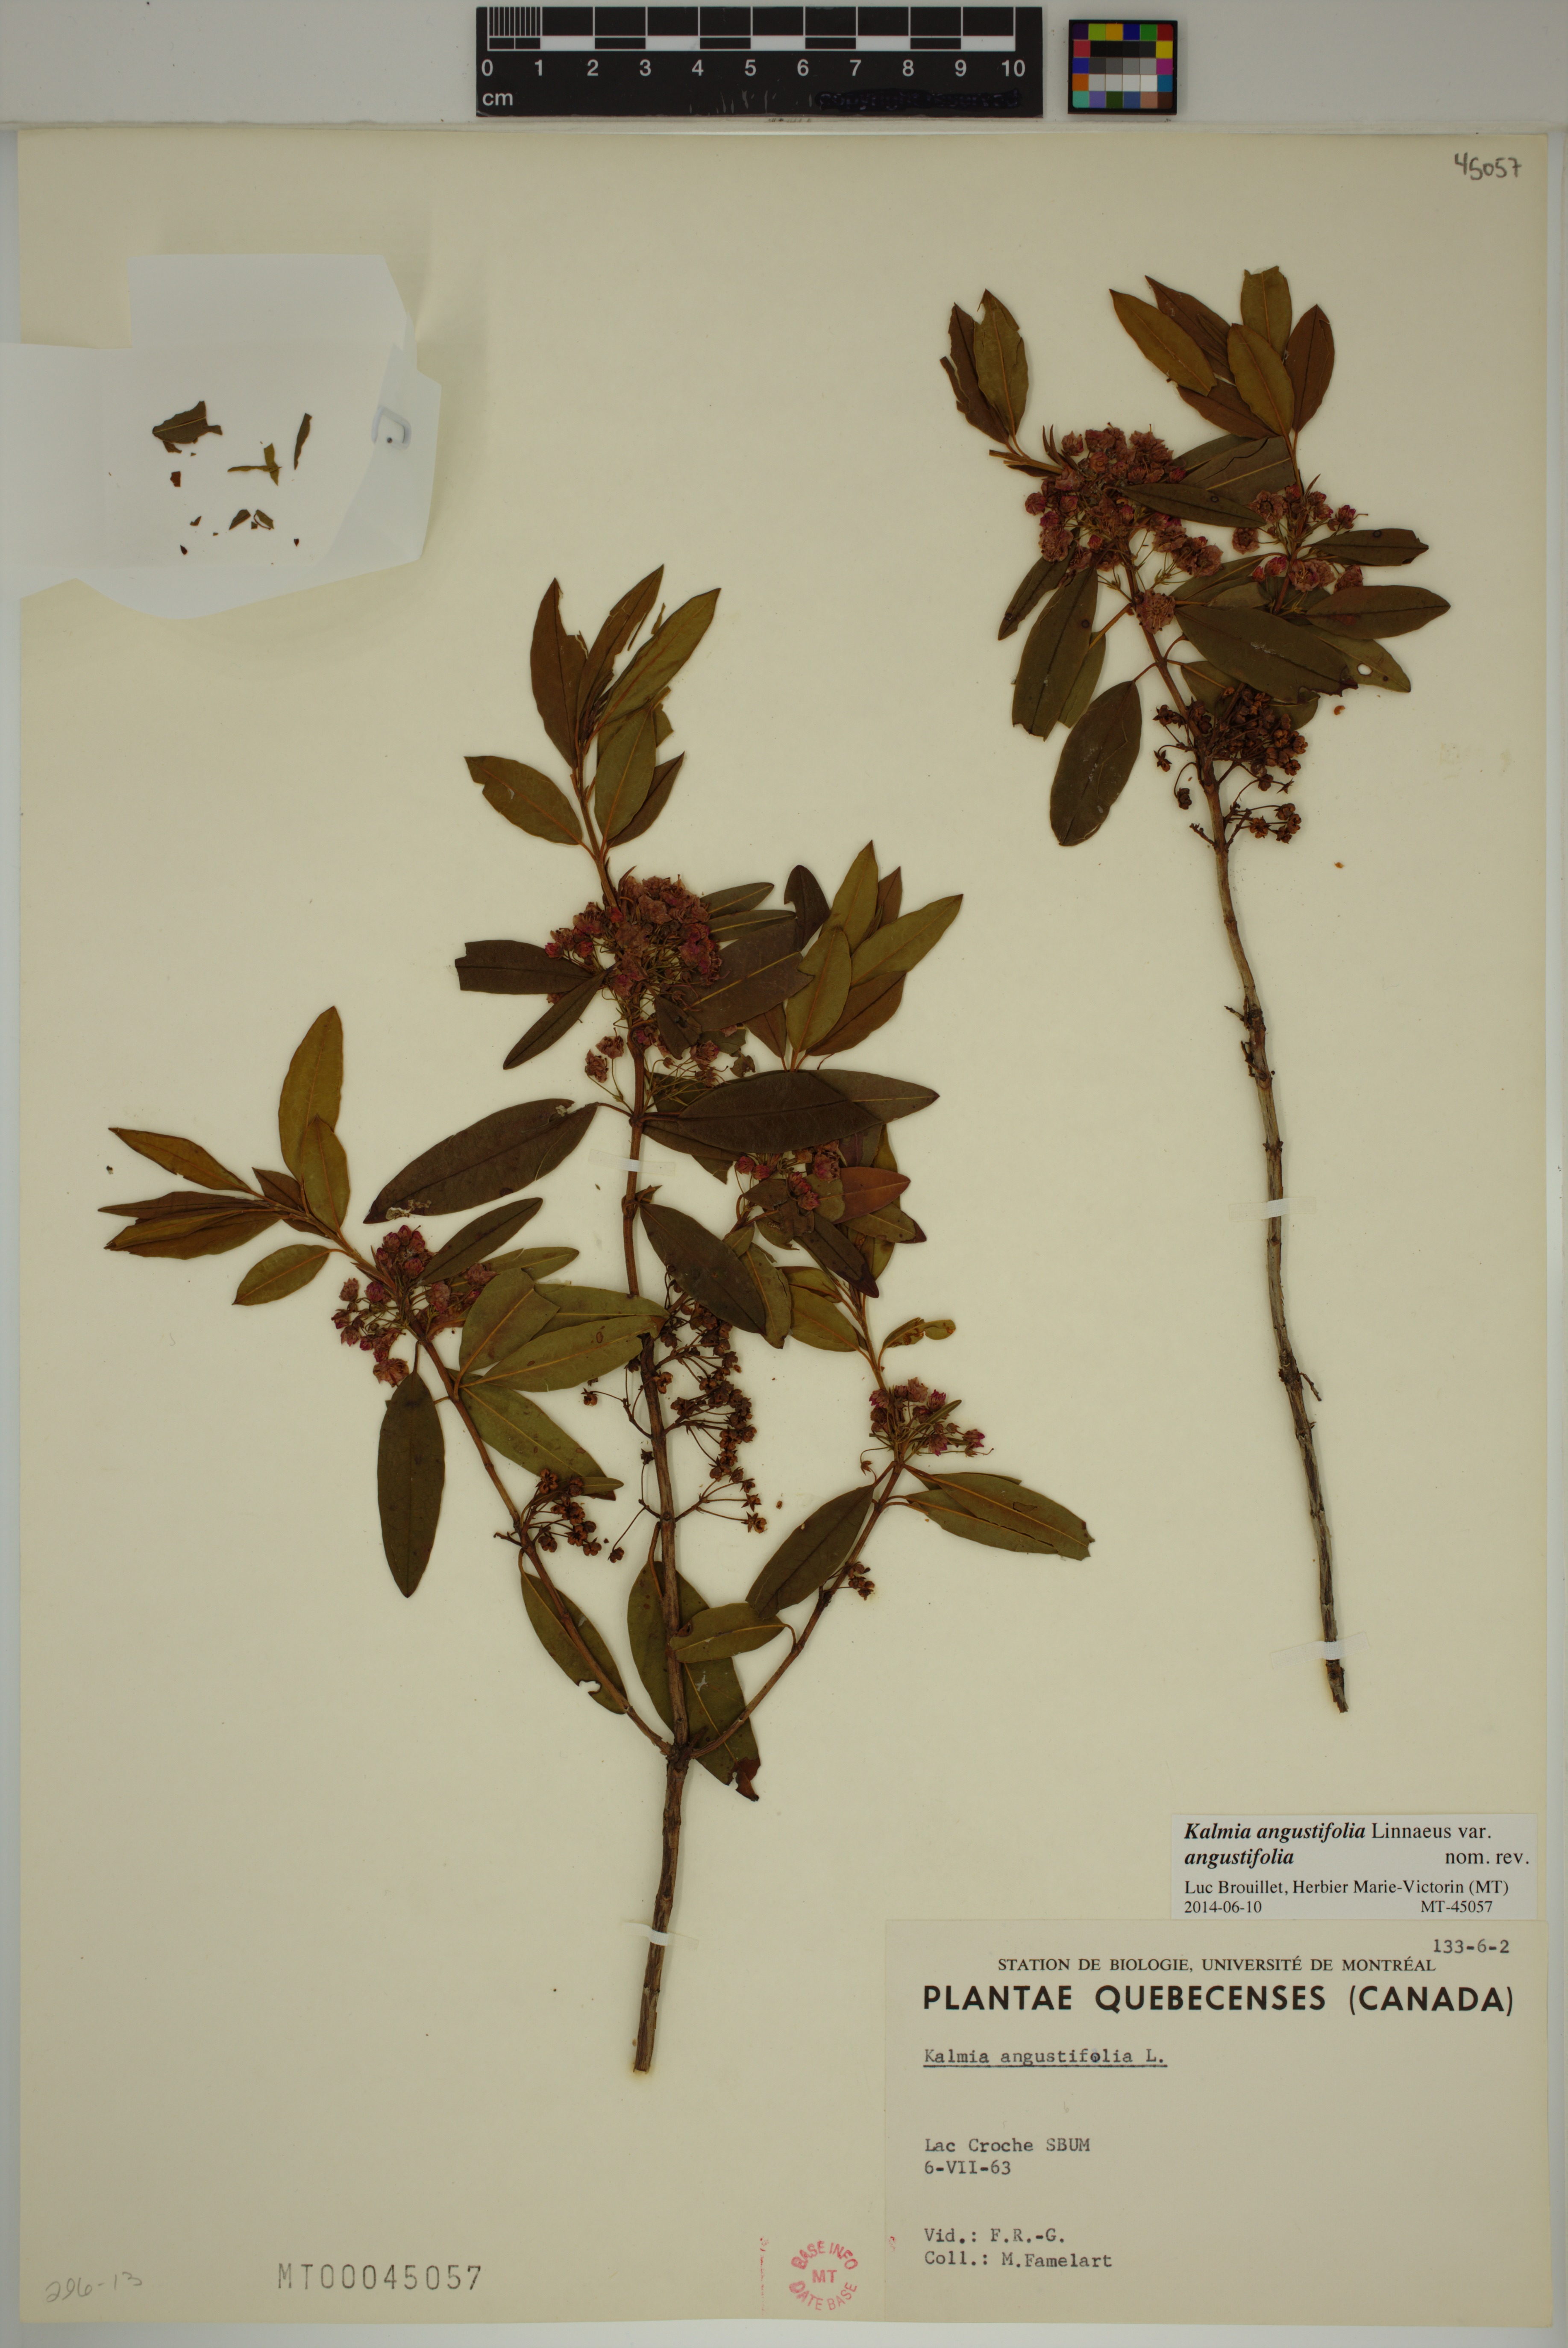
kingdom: Plantae
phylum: Tracheophyta
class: Magnoliopsida
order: Ericales
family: Ericaceae
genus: Kalmia
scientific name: Kalmia angustifolia
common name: Sheep-laurel
